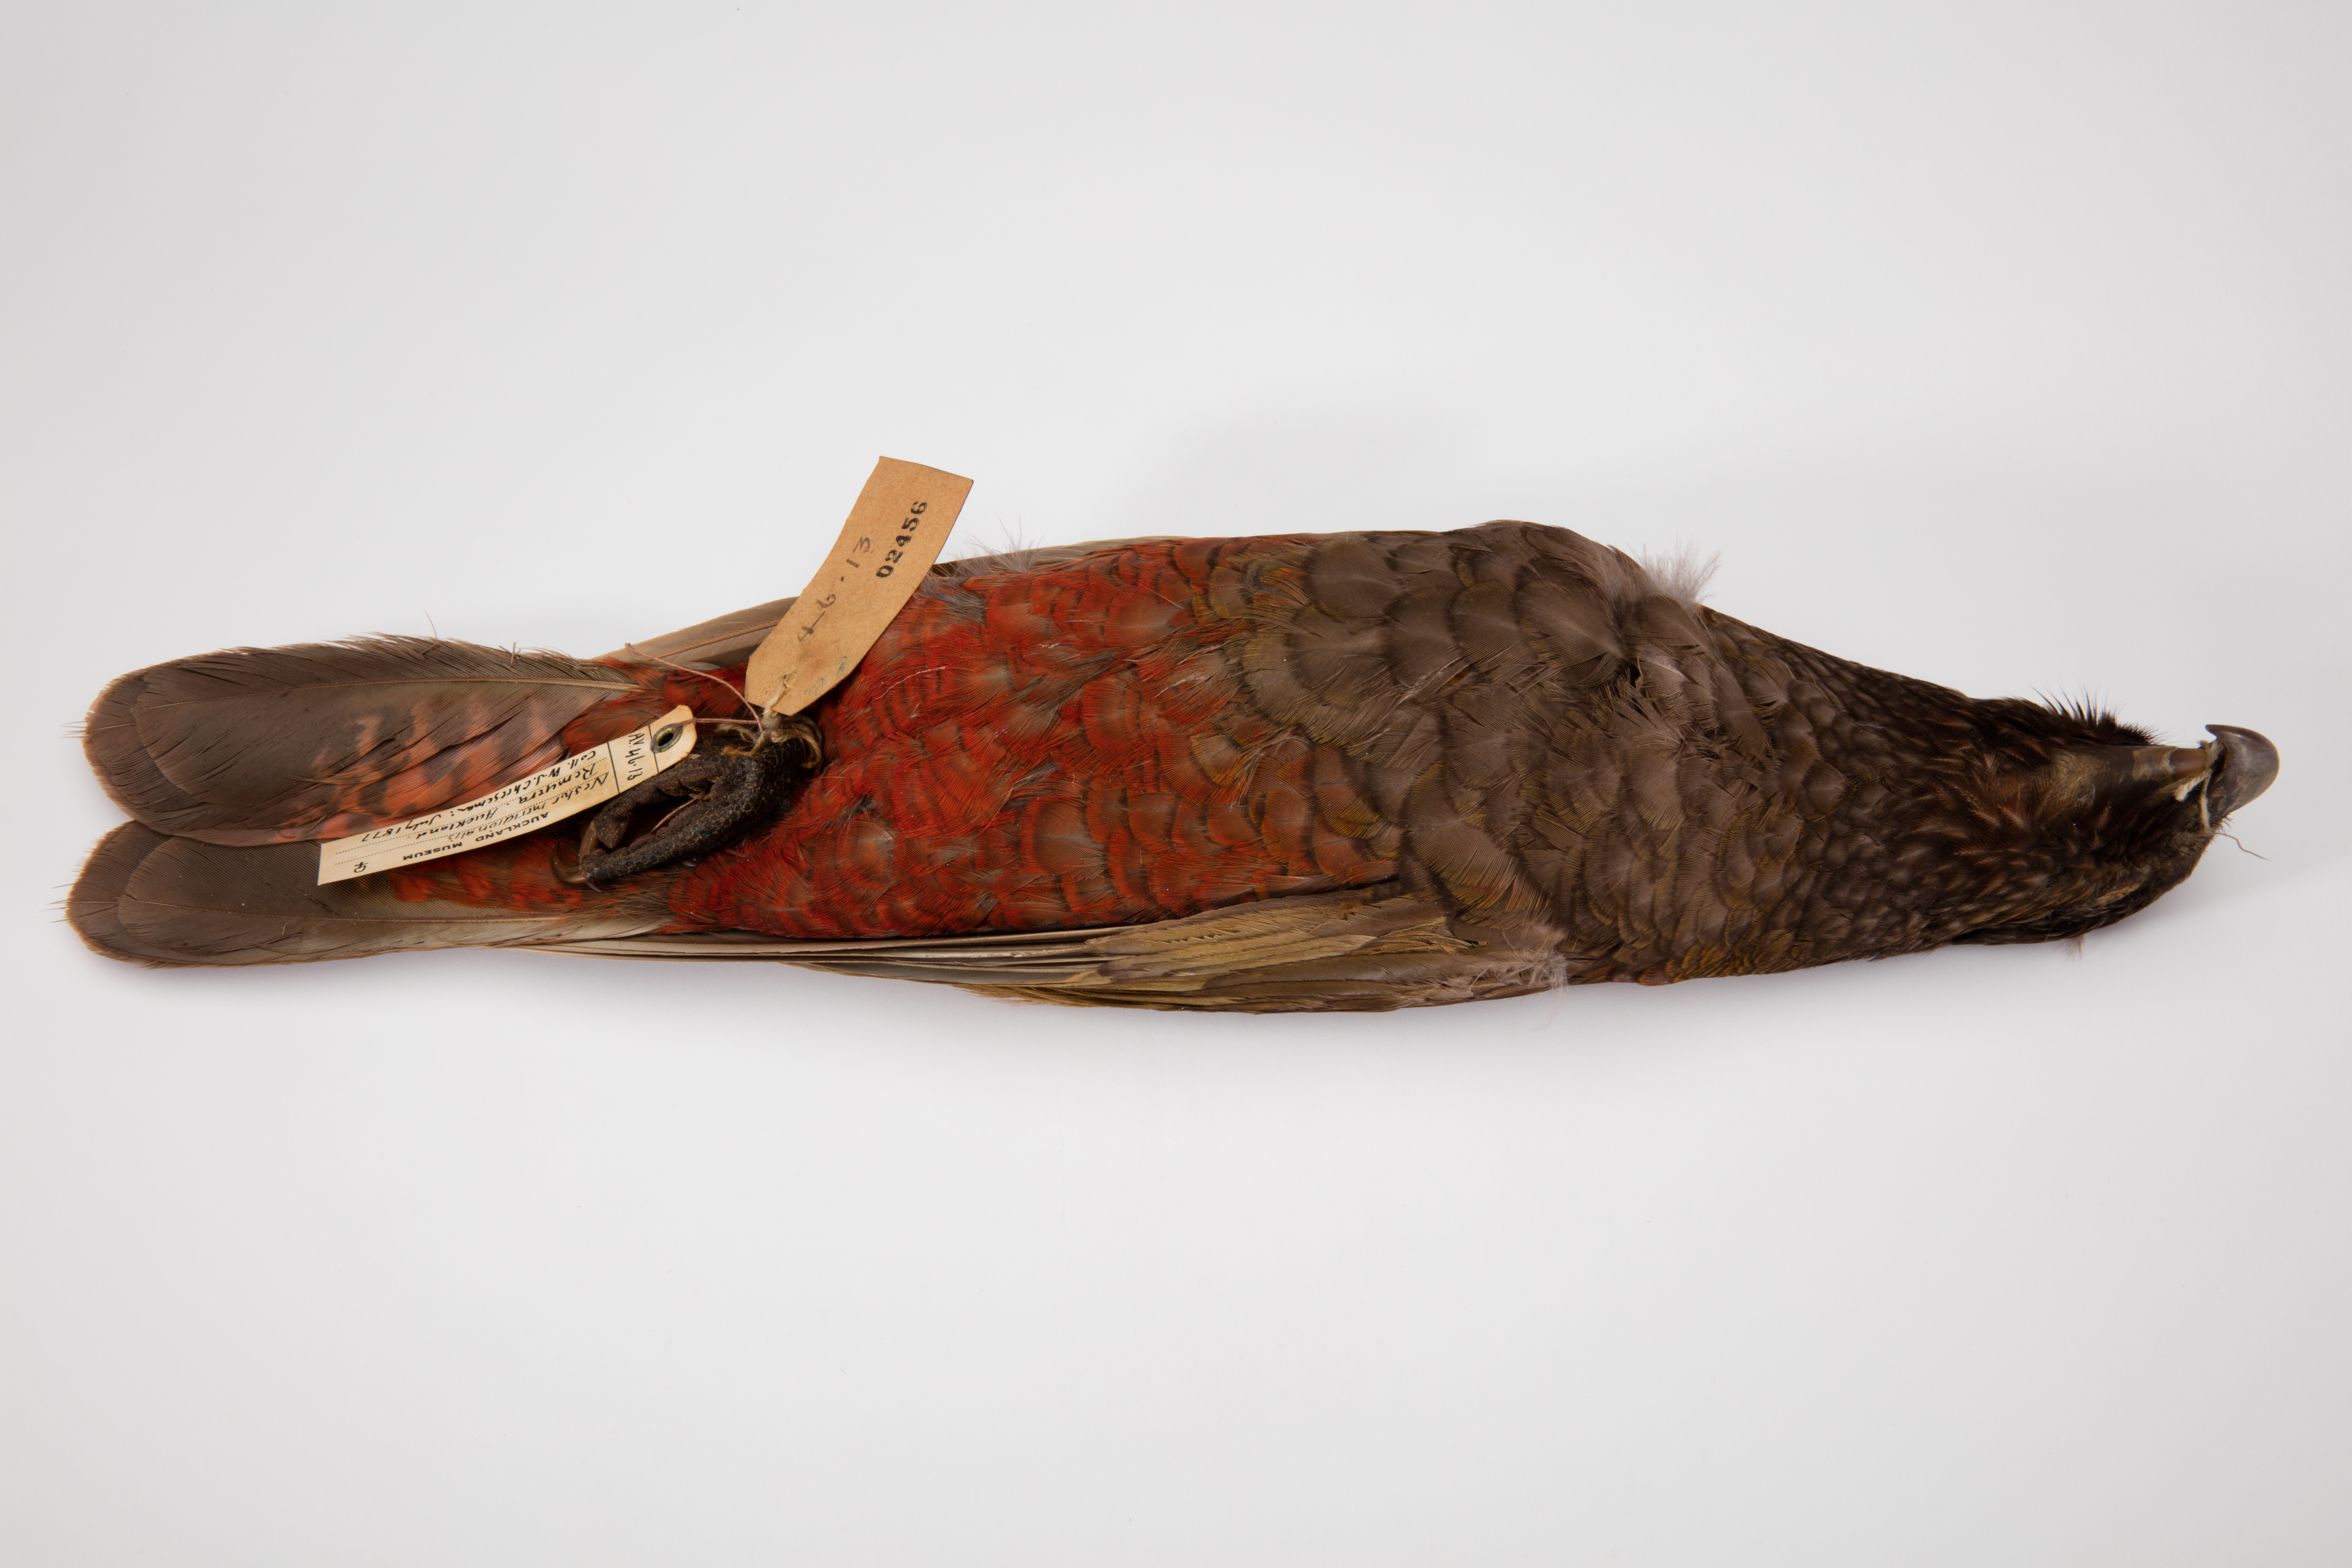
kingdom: Animalia
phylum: Chordata
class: Aves
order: Psittaciformes
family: Psittacidae
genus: Nestor
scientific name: Nestor meridionalis
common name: New zealand kaka
